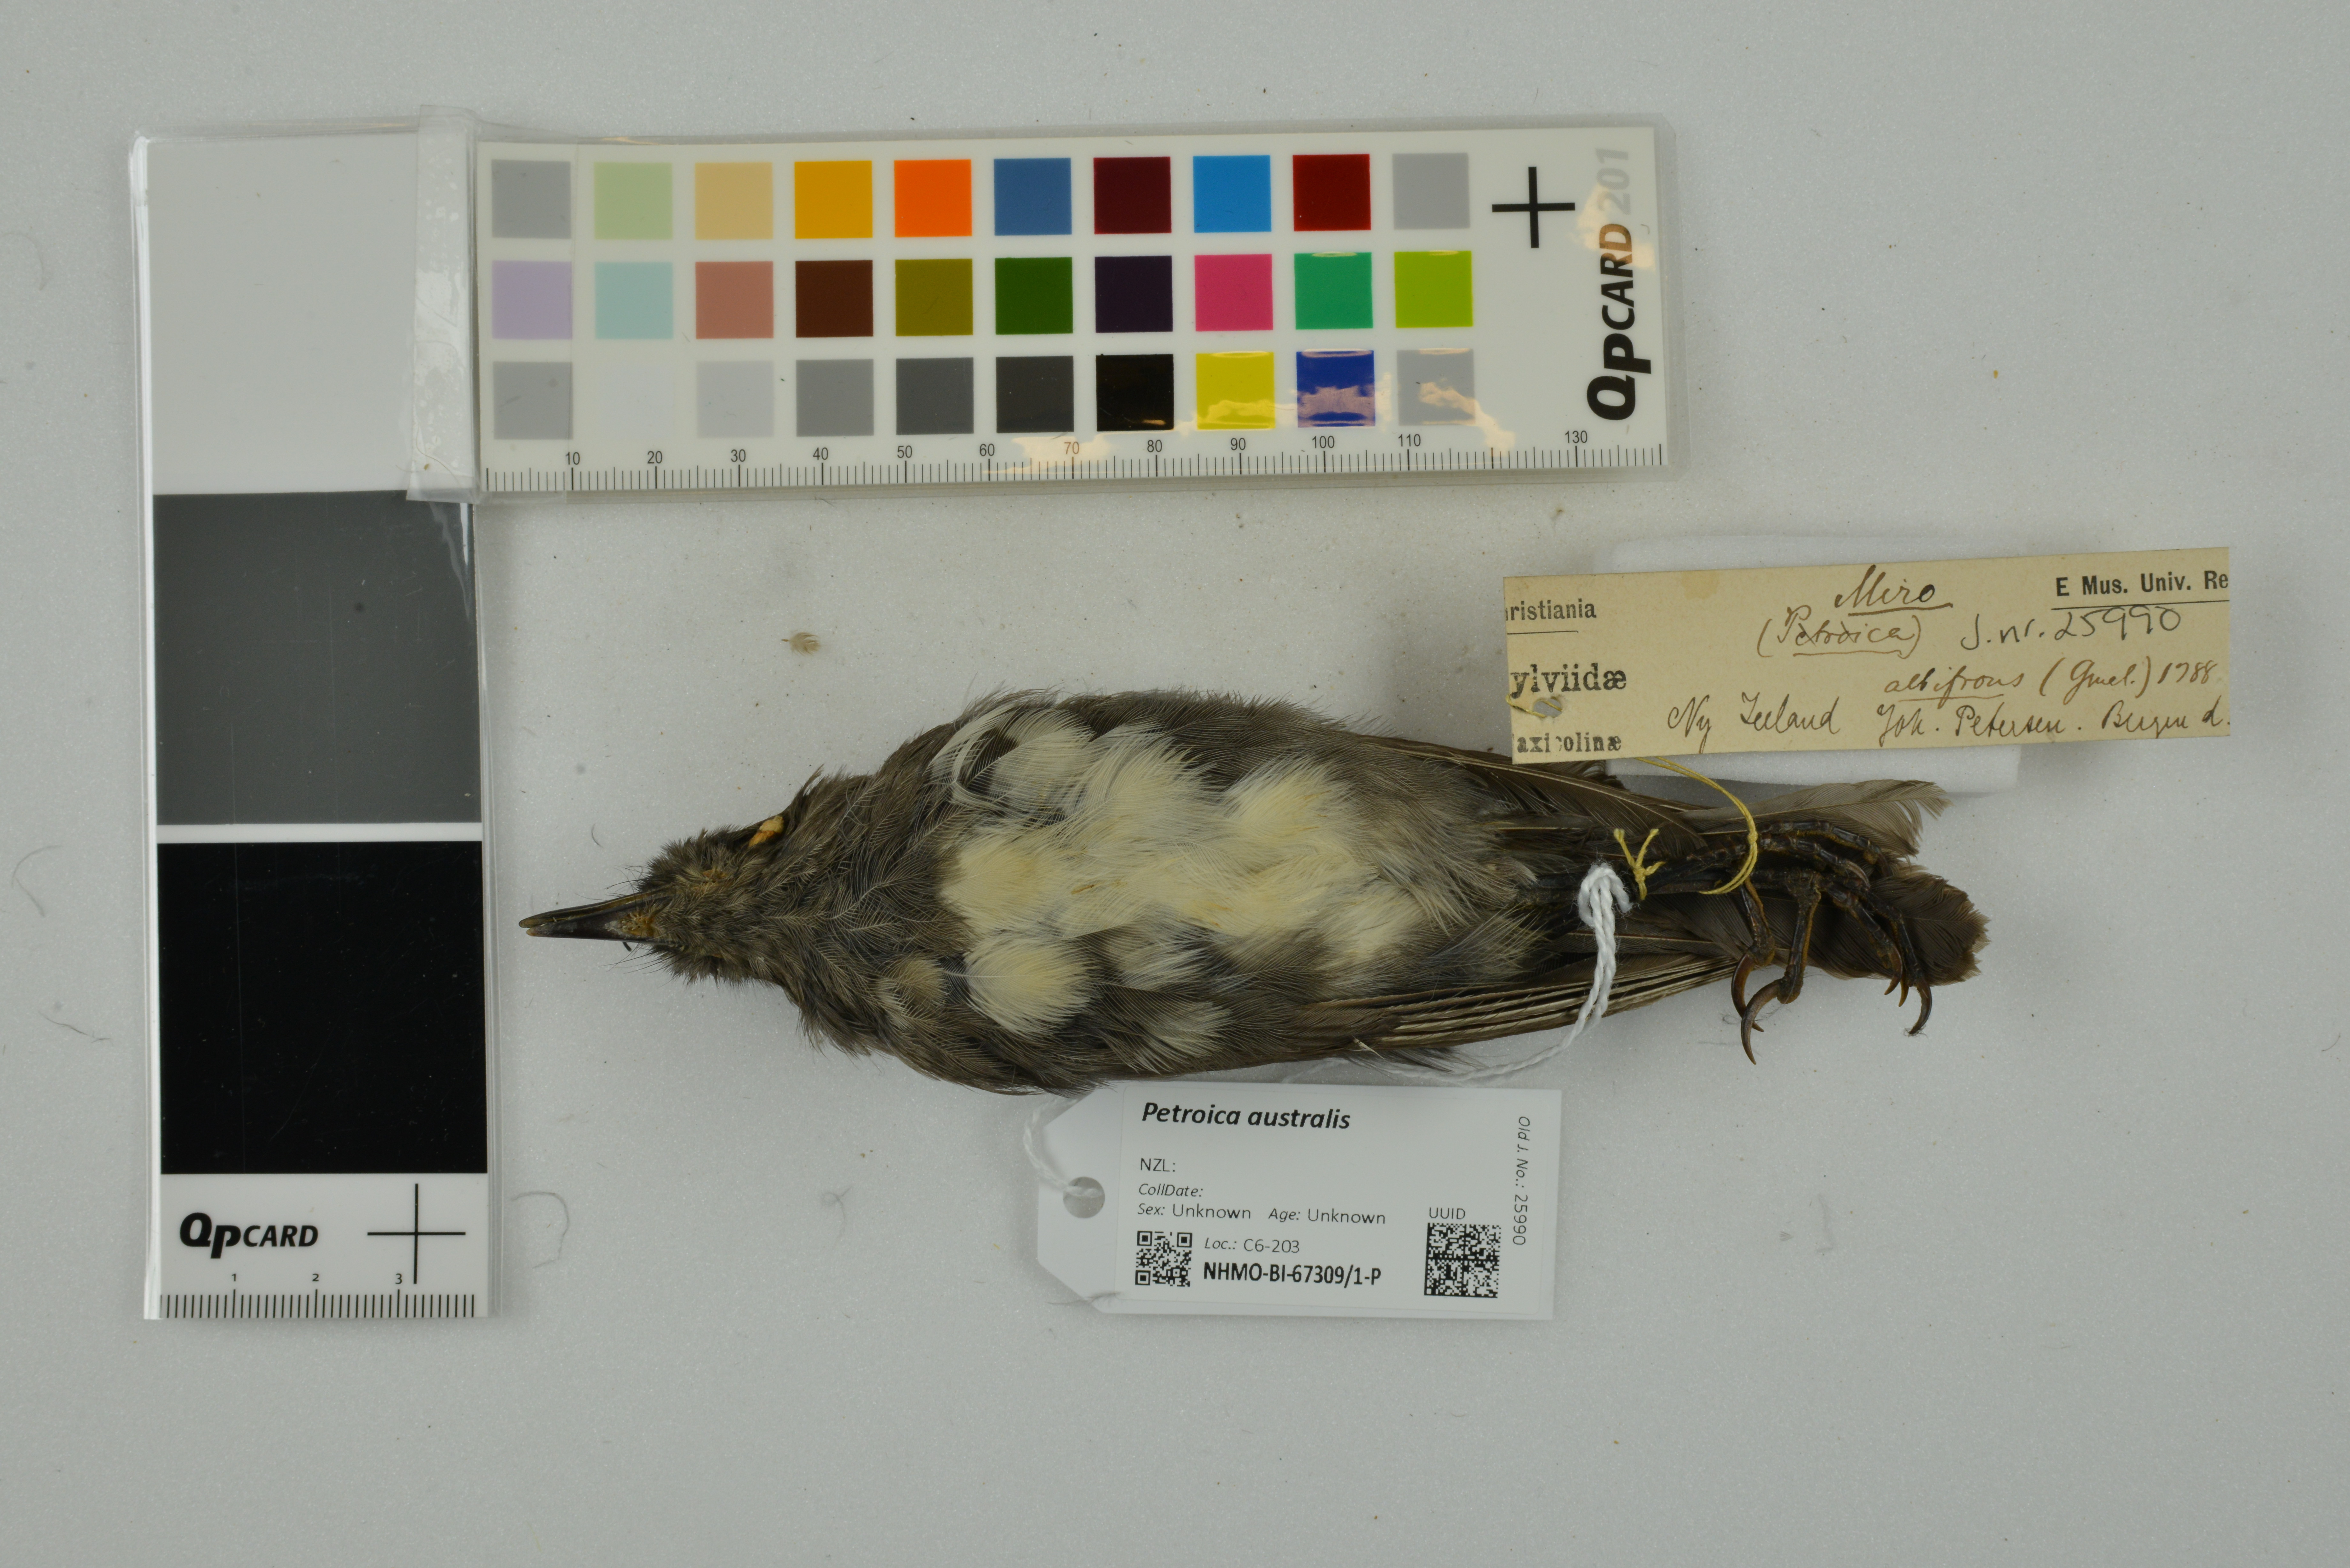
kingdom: Animalia
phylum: Chordata
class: Aves
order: Passeriformes
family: Petroicidae
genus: Petroica
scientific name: Petroica australis
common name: New zealand robin
